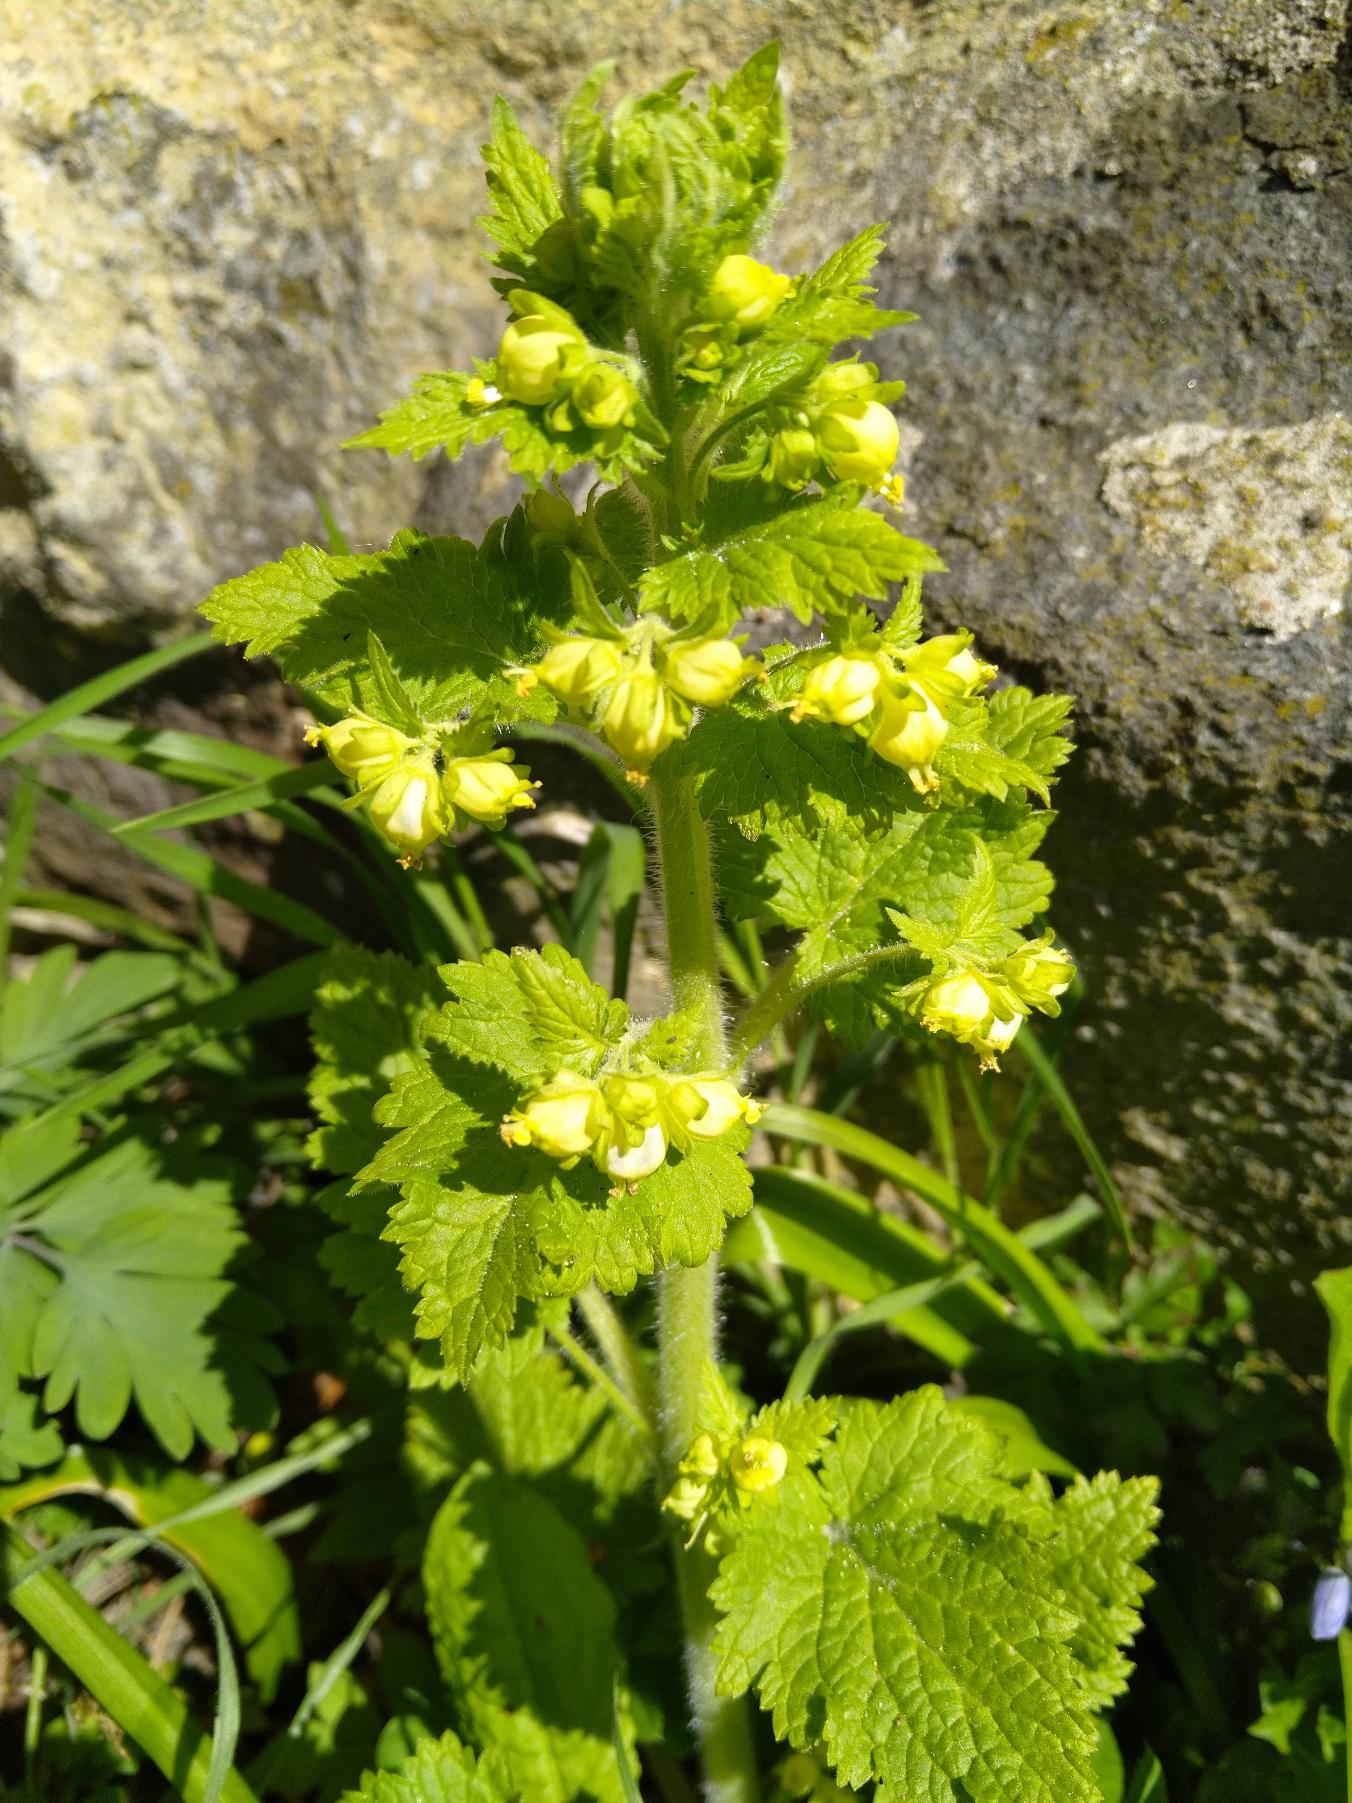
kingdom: Plantae
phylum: Tracheophyta
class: Magnoliopsida
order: Lamiales
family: Scrophulariaceae
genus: Scrophularia
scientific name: Scrophularia vernalis
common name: Vår-brunrod
